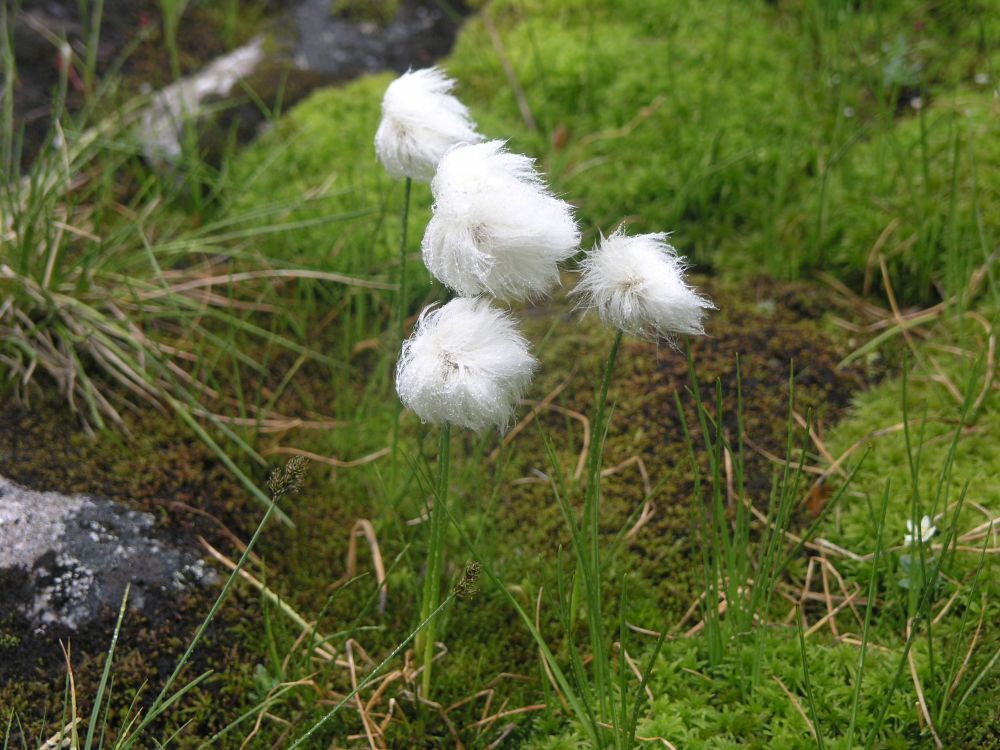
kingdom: Plantae
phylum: Tracheophyta
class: Liliopsida
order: Poales
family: Cyperaceae
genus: Eriophorum
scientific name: Eriophorum scheuchzeri
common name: Scheuchzer's cottongrass
